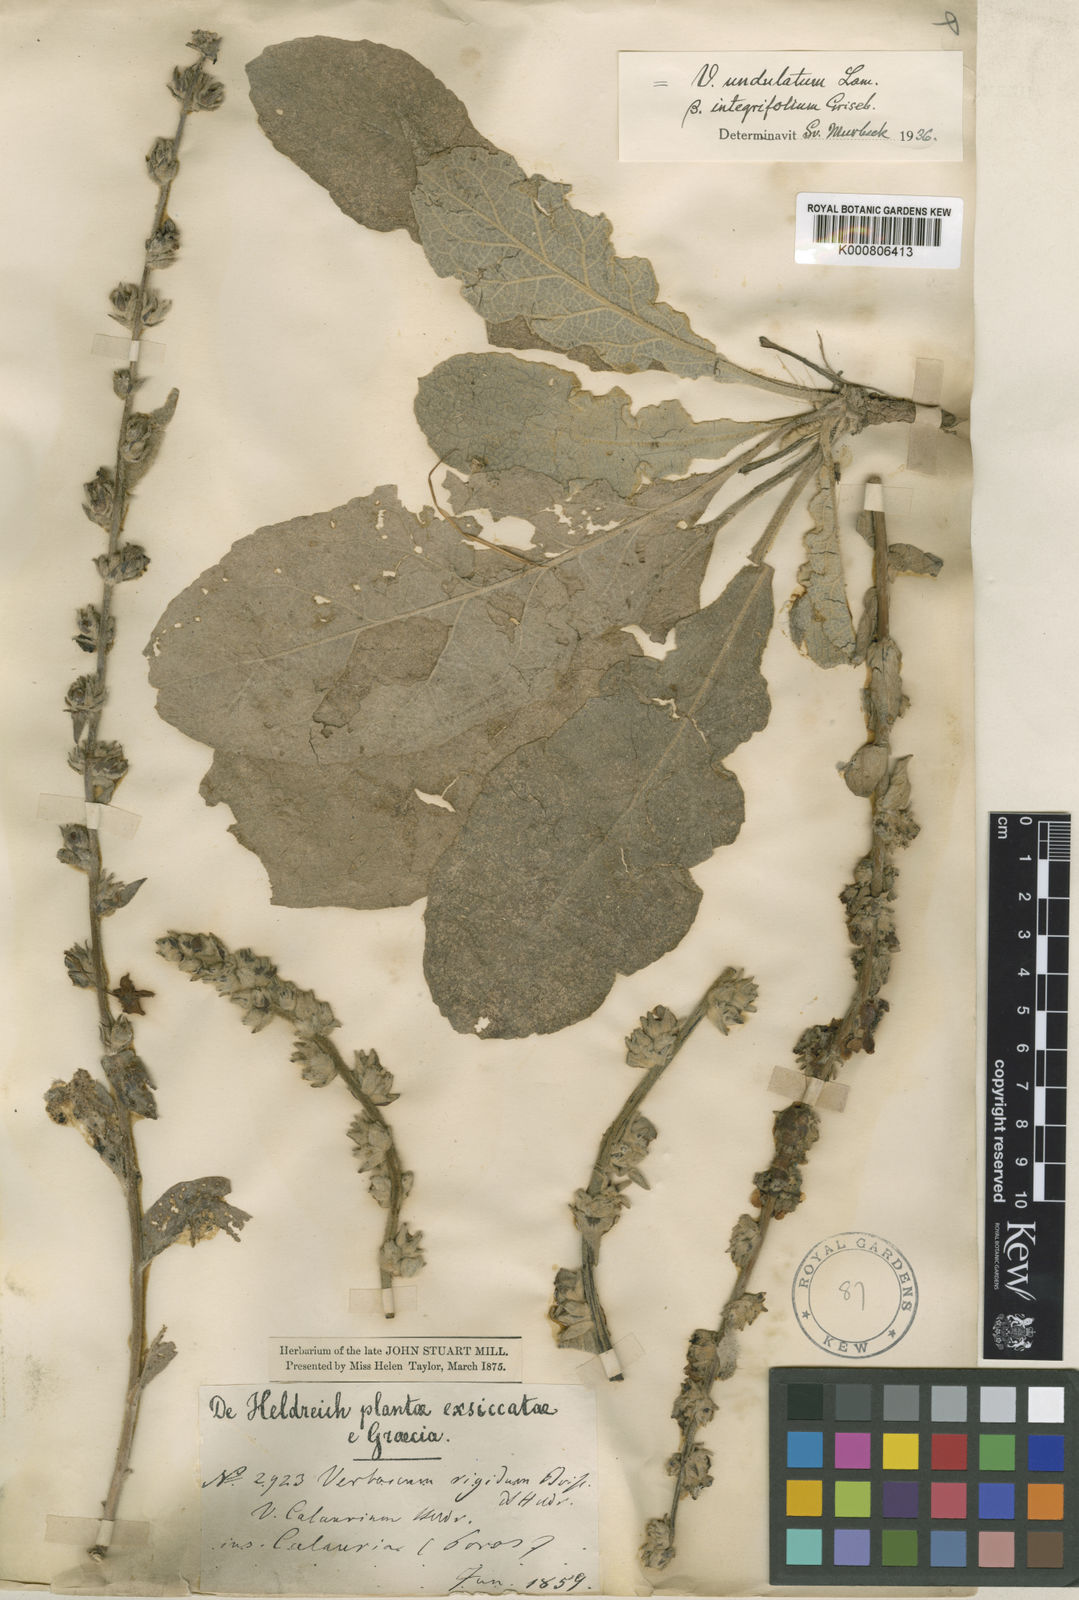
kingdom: Plantae
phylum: Tracheophyta
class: Magnoliopsida
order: Lamiales
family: Scrophulariaceae
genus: Verbascum
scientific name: Verbascum undulatum
